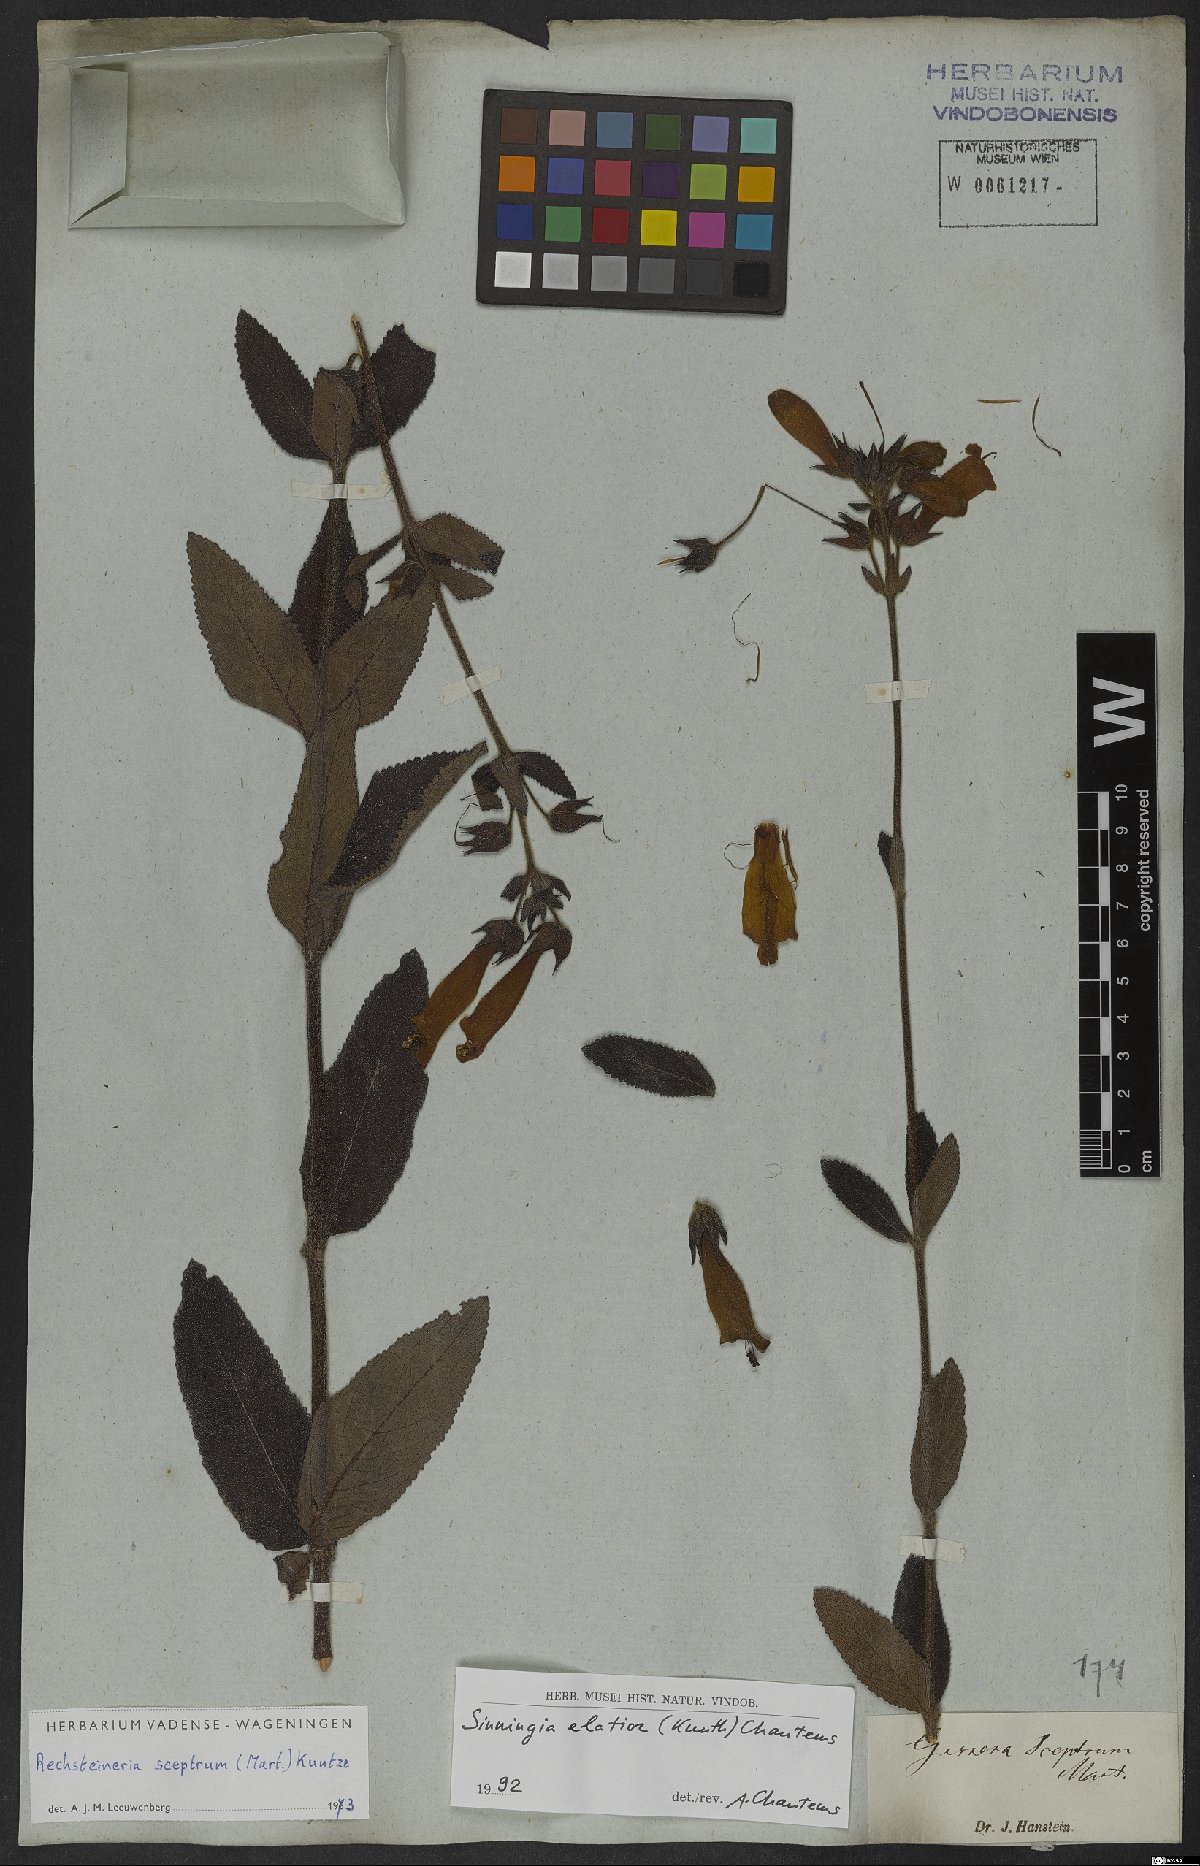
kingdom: Plantae
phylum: Tracheophyta
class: Magnoliopsida
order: Lamiales
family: Gesneriaceae
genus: Sinningia
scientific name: Sinningia elatior
